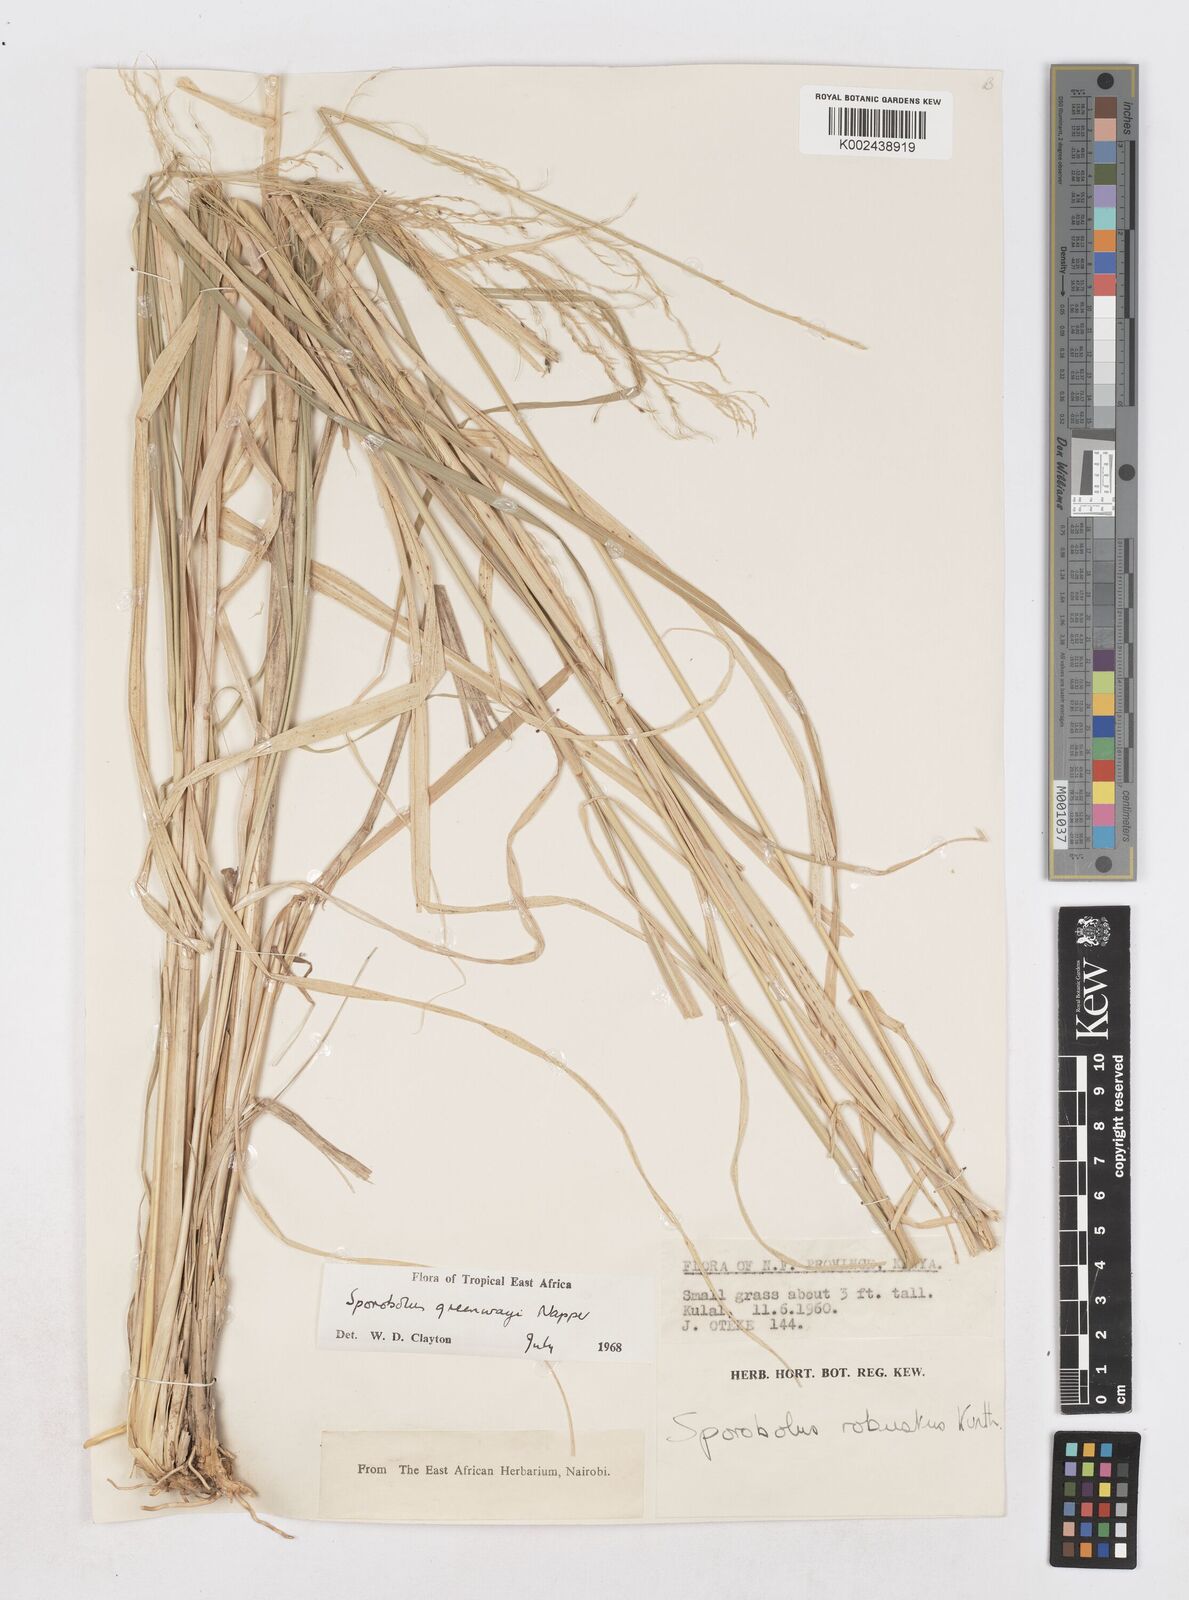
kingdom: Plantae
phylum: Tracheophyta
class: Liliopsida
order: Poales
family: Poaceae
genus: Sporobolus
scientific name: Sporobolus macranthelus
